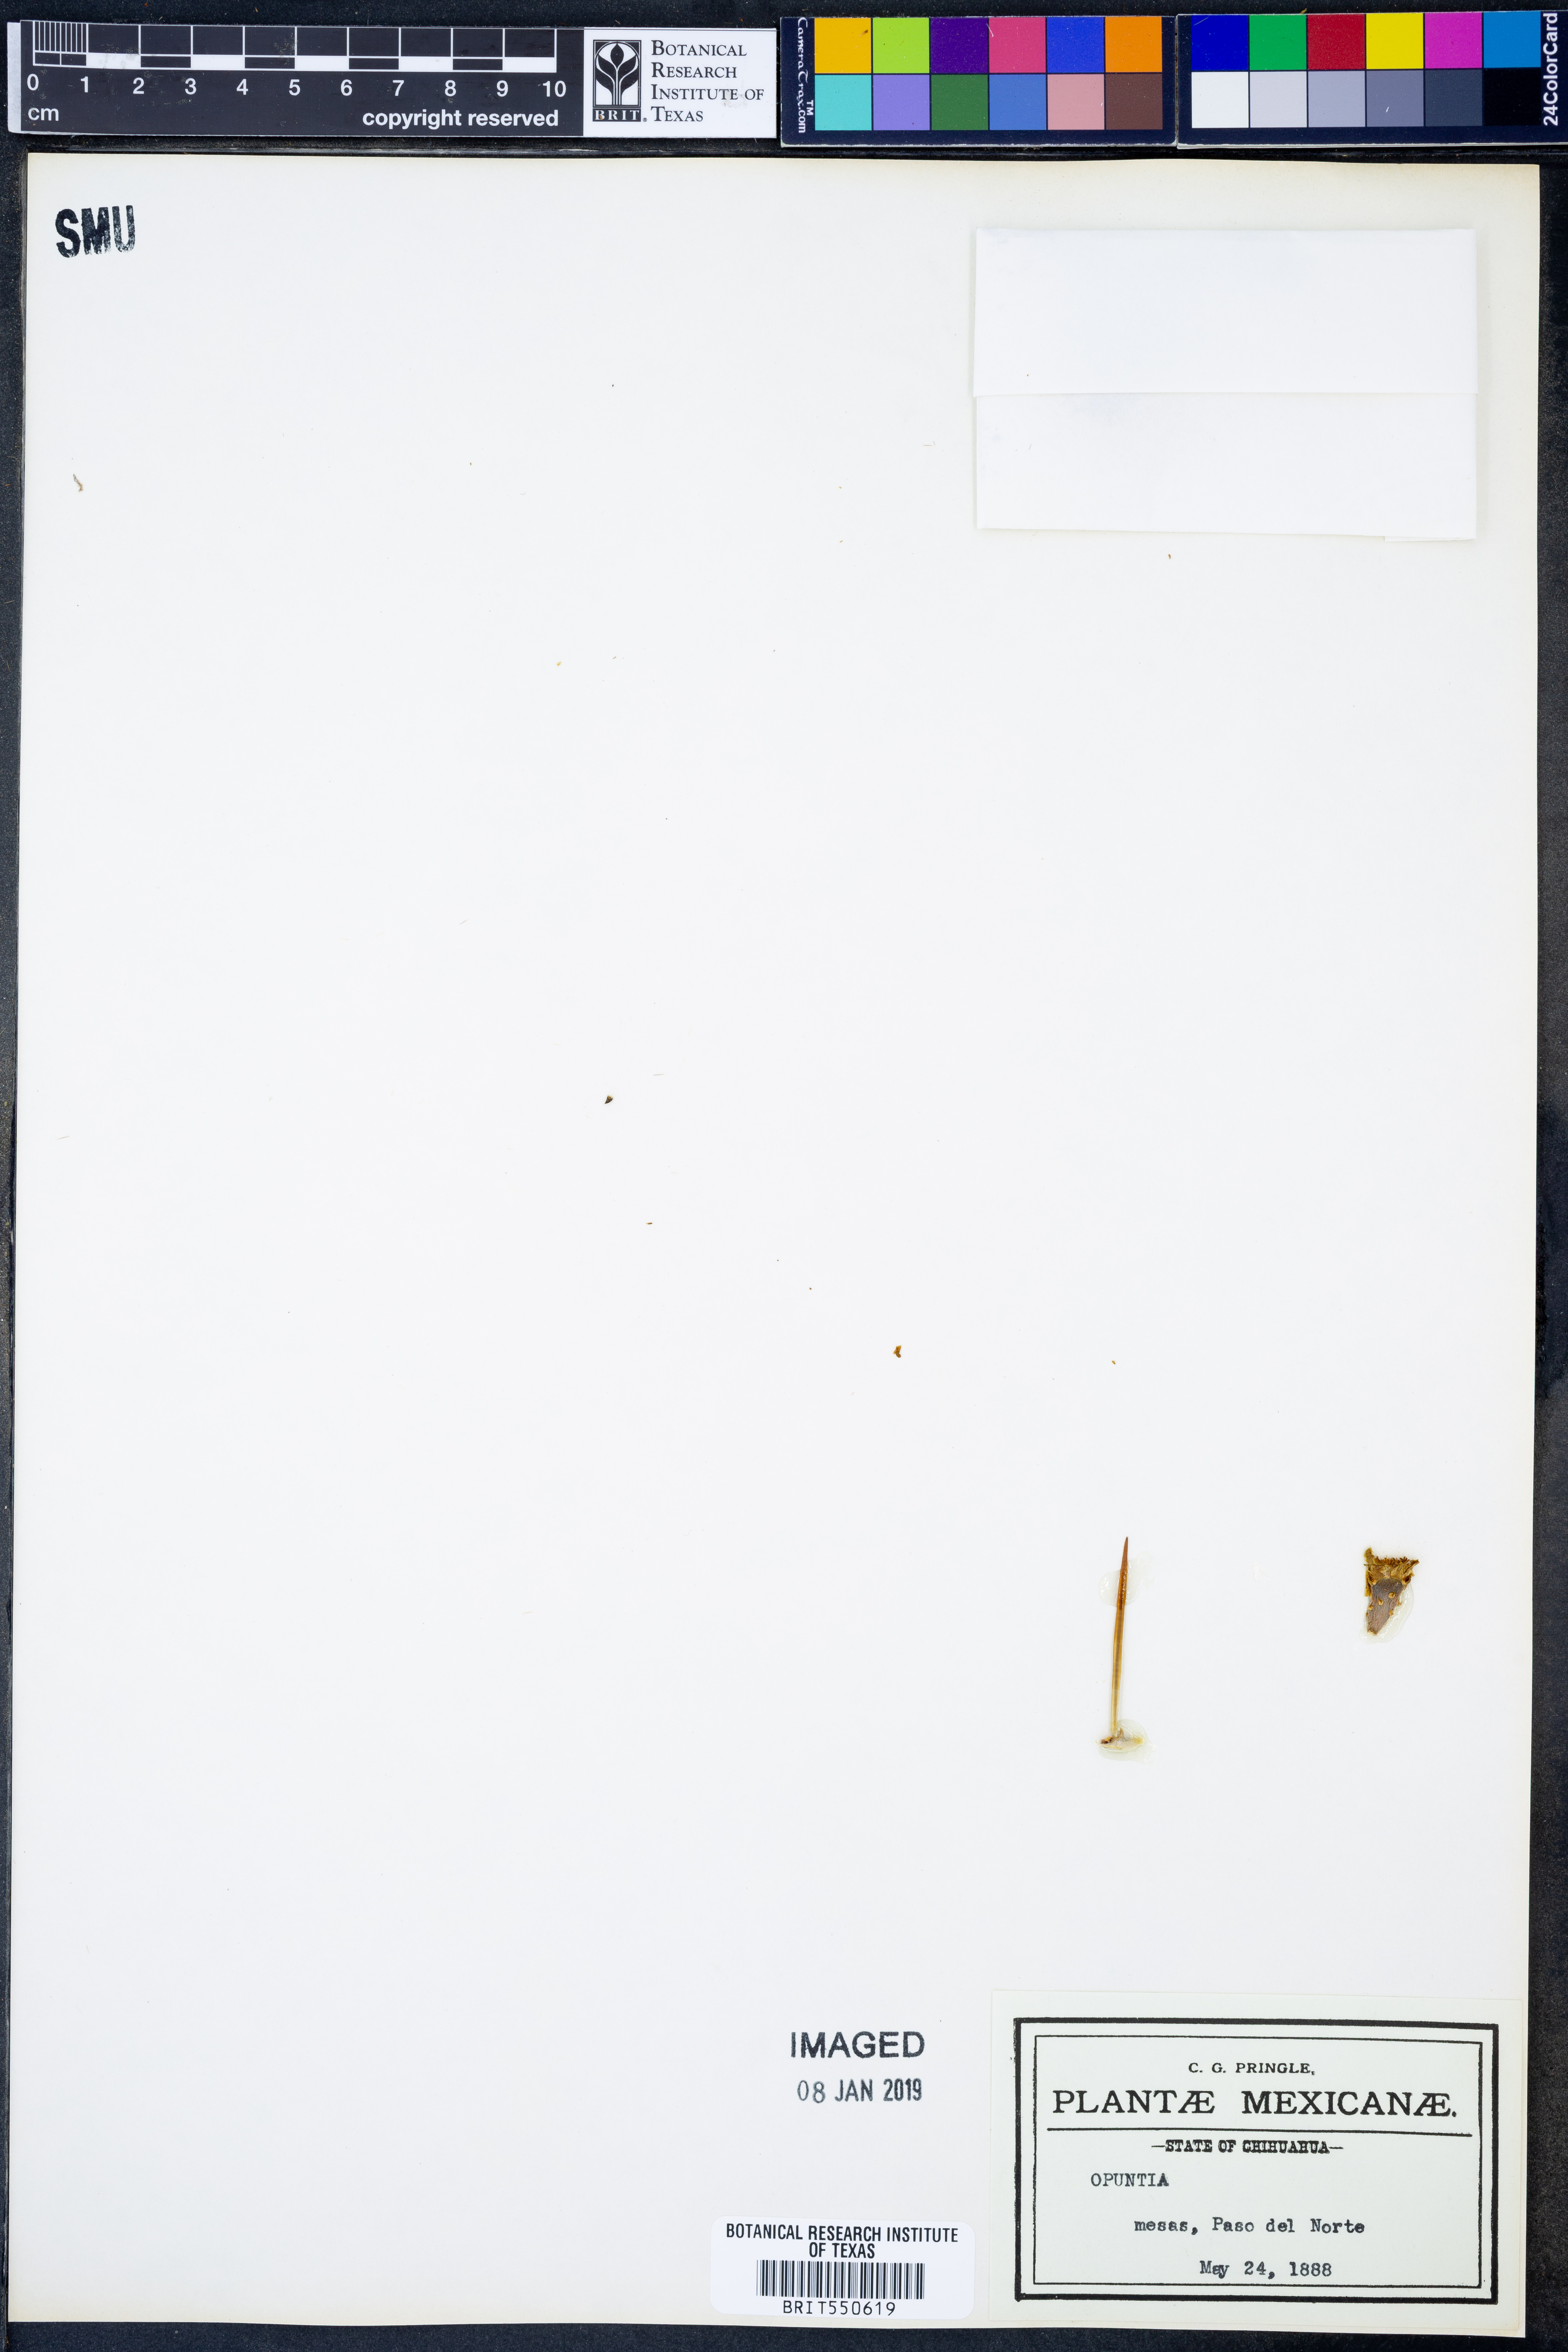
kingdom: Plantae
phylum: Tracheophyta
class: Magnoliopsida
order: Caryophyllales
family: Cactaceae
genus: Opuntia
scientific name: Opuntia
